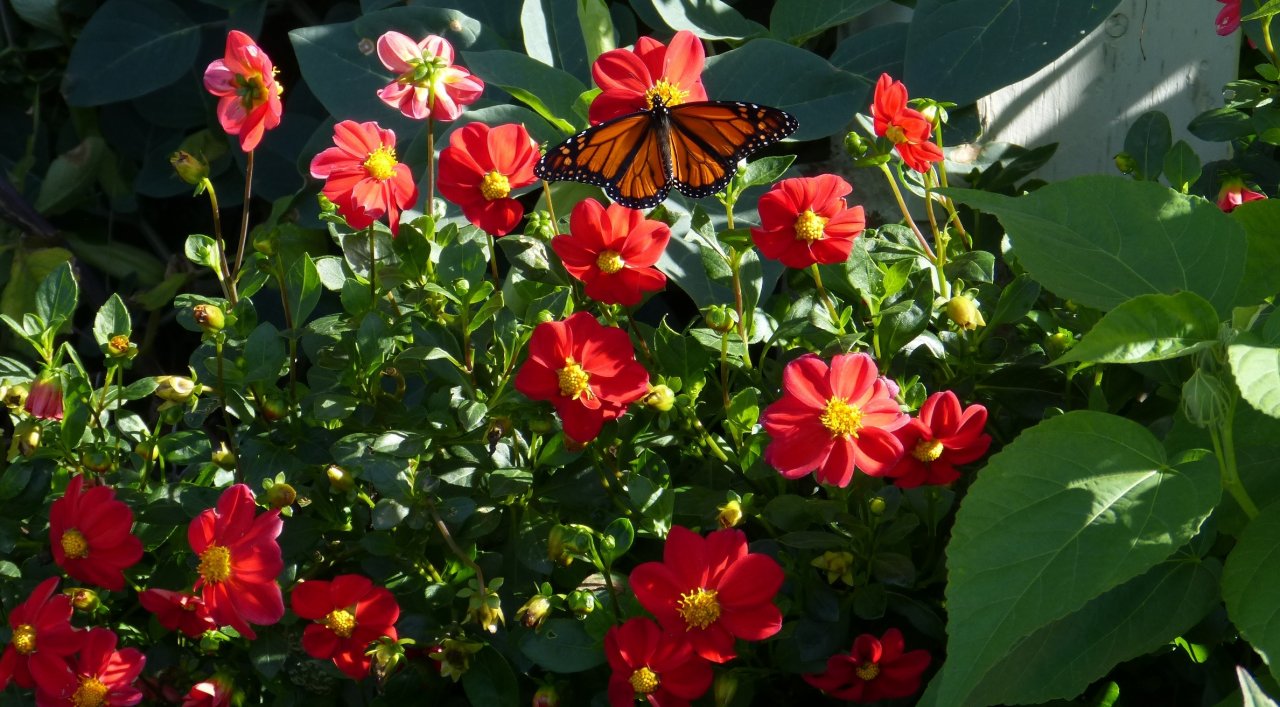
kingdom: Animalia
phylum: Arthropoda
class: Insecta
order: Lepidoptera
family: Nymphalidae
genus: Danaus
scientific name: Danaus plexippus
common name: Monarch
